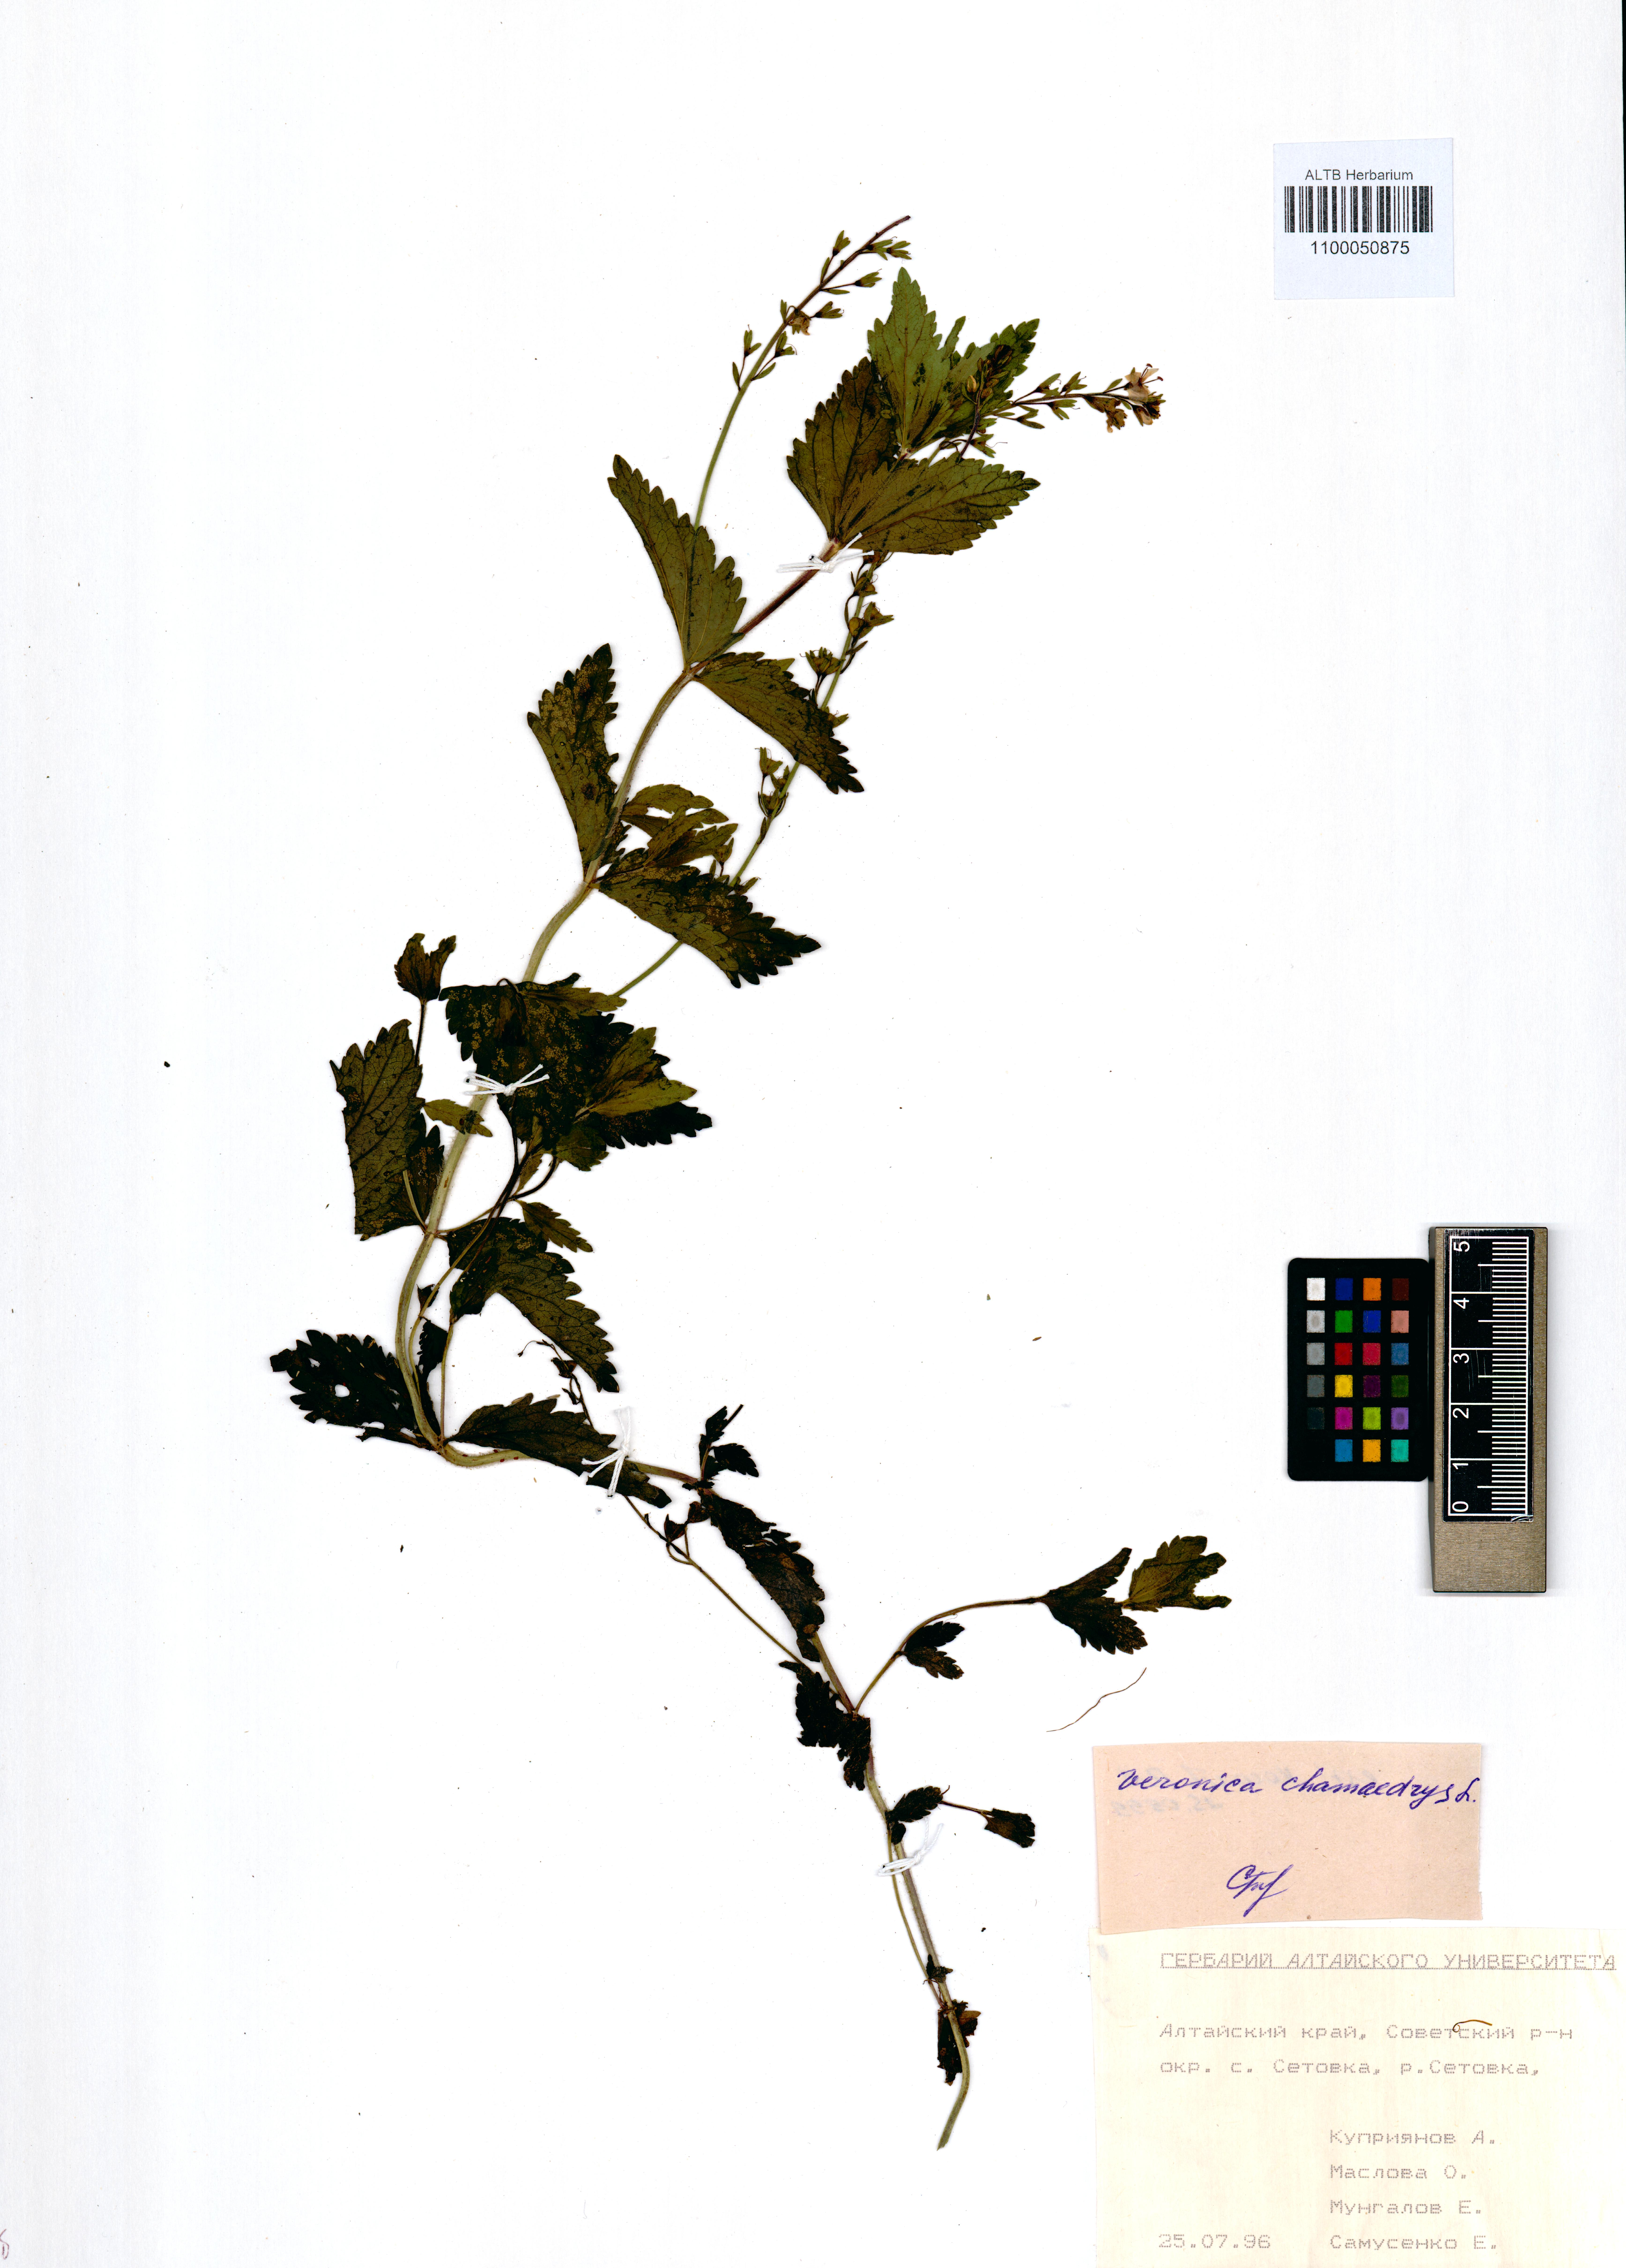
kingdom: Plantae
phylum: Tracheophyta
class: Magnoliopsida
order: Lamiales
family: Plantaginaceae
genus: Veronica
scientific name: Veronica chamaedrys
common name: Germander speedwell
